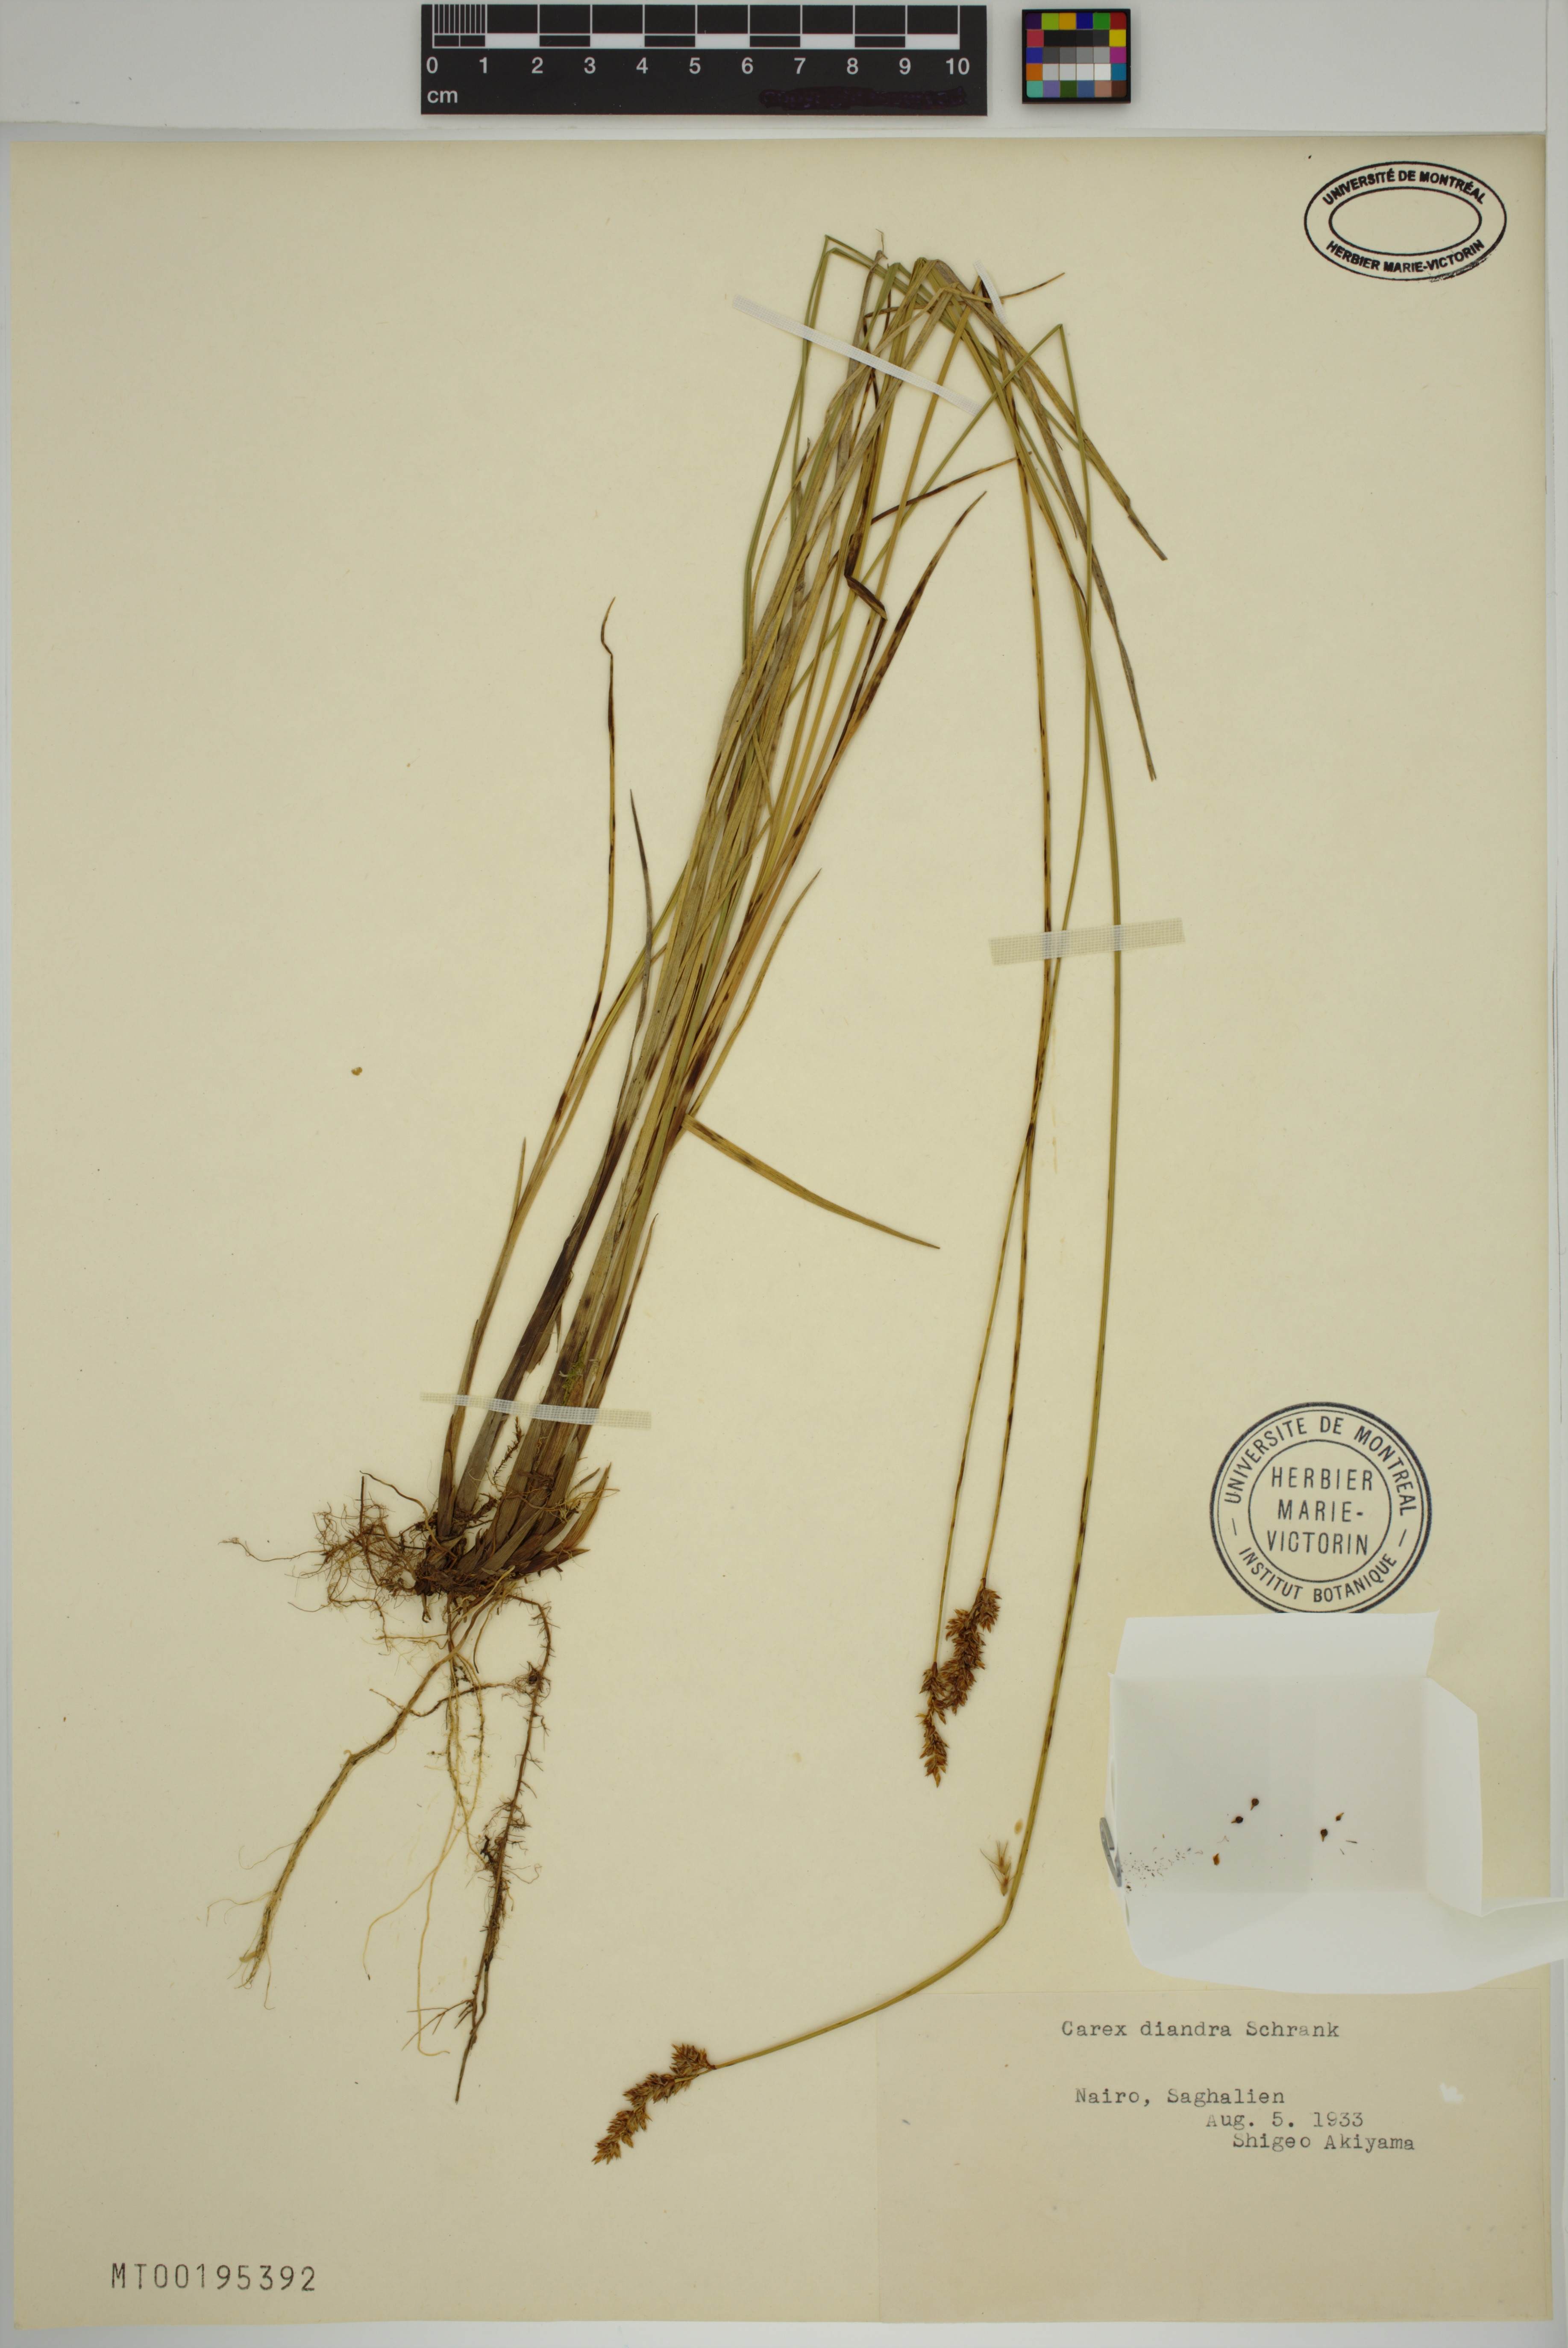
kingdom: Plantae
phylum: Tracheophyta
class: Liliopsida
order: Poales
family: Cyperaceae
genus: Carex
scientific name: Carex diandra
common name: Lesser tussock-sedge
